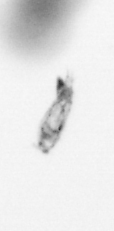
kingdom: Animalia
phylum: Arthropoda
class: Copepoda
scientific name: Copepoda
